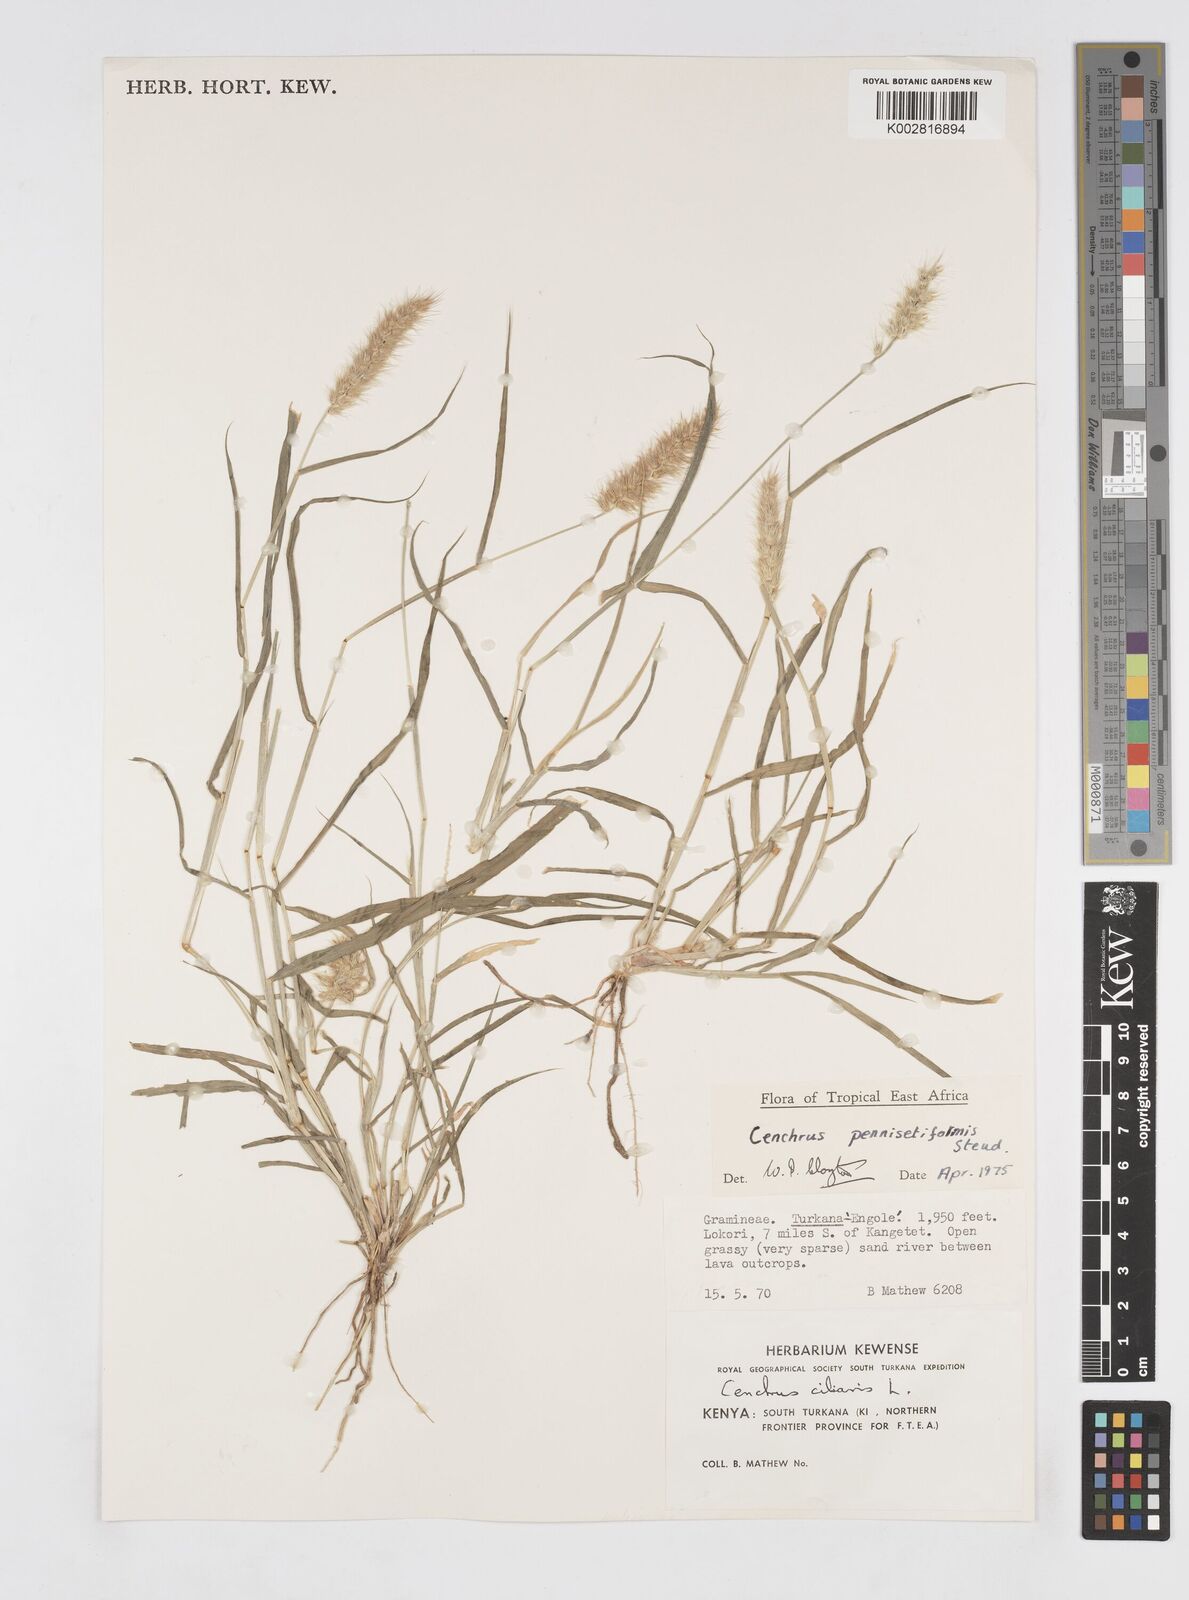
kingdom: Plantae
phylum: Tracheophyta
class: Liliopsida
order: Poales
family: Poaceae
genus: Cenchrus
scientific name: Cenchrus pennisetiformis
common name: Cloncurry
